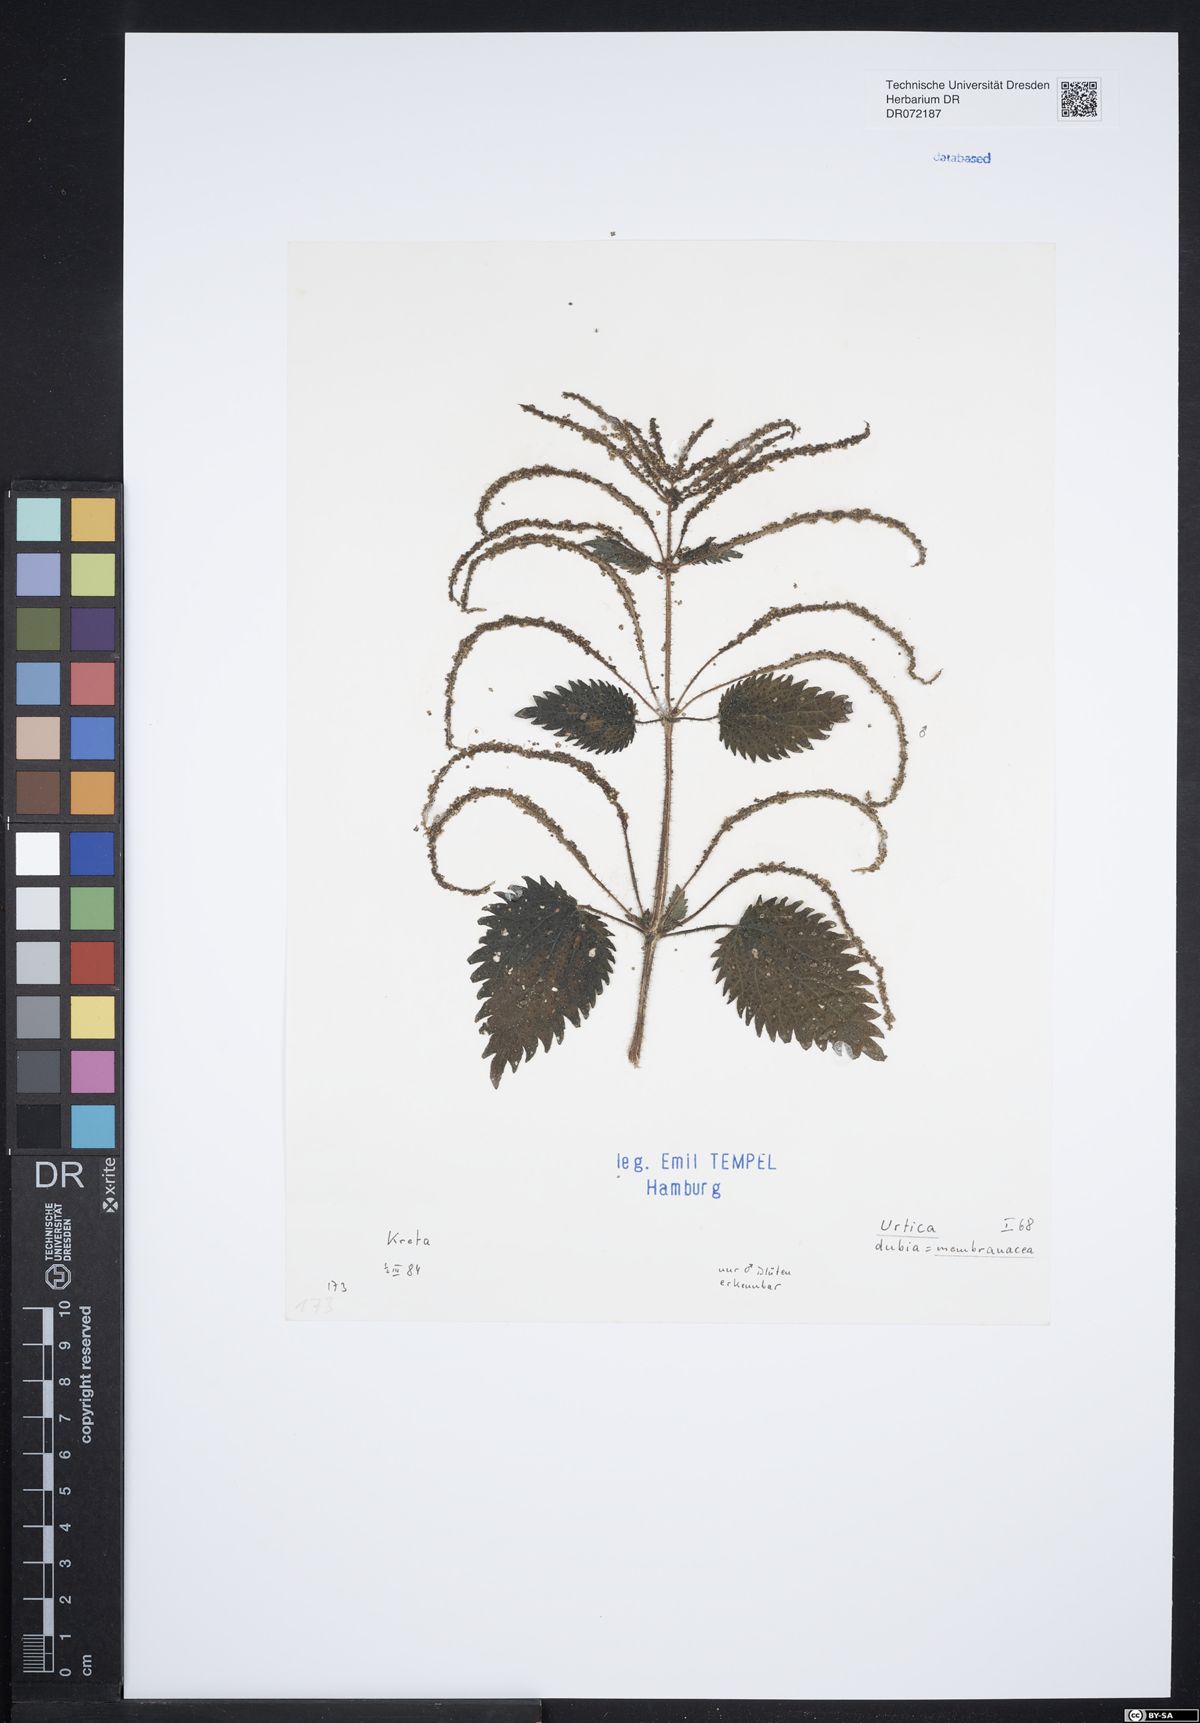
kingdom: Plantae
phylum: Tracheophyta
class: Magnoliopsida
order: Rosales
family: Urticaceae
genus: Urtica
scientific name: Urtica membranacea
